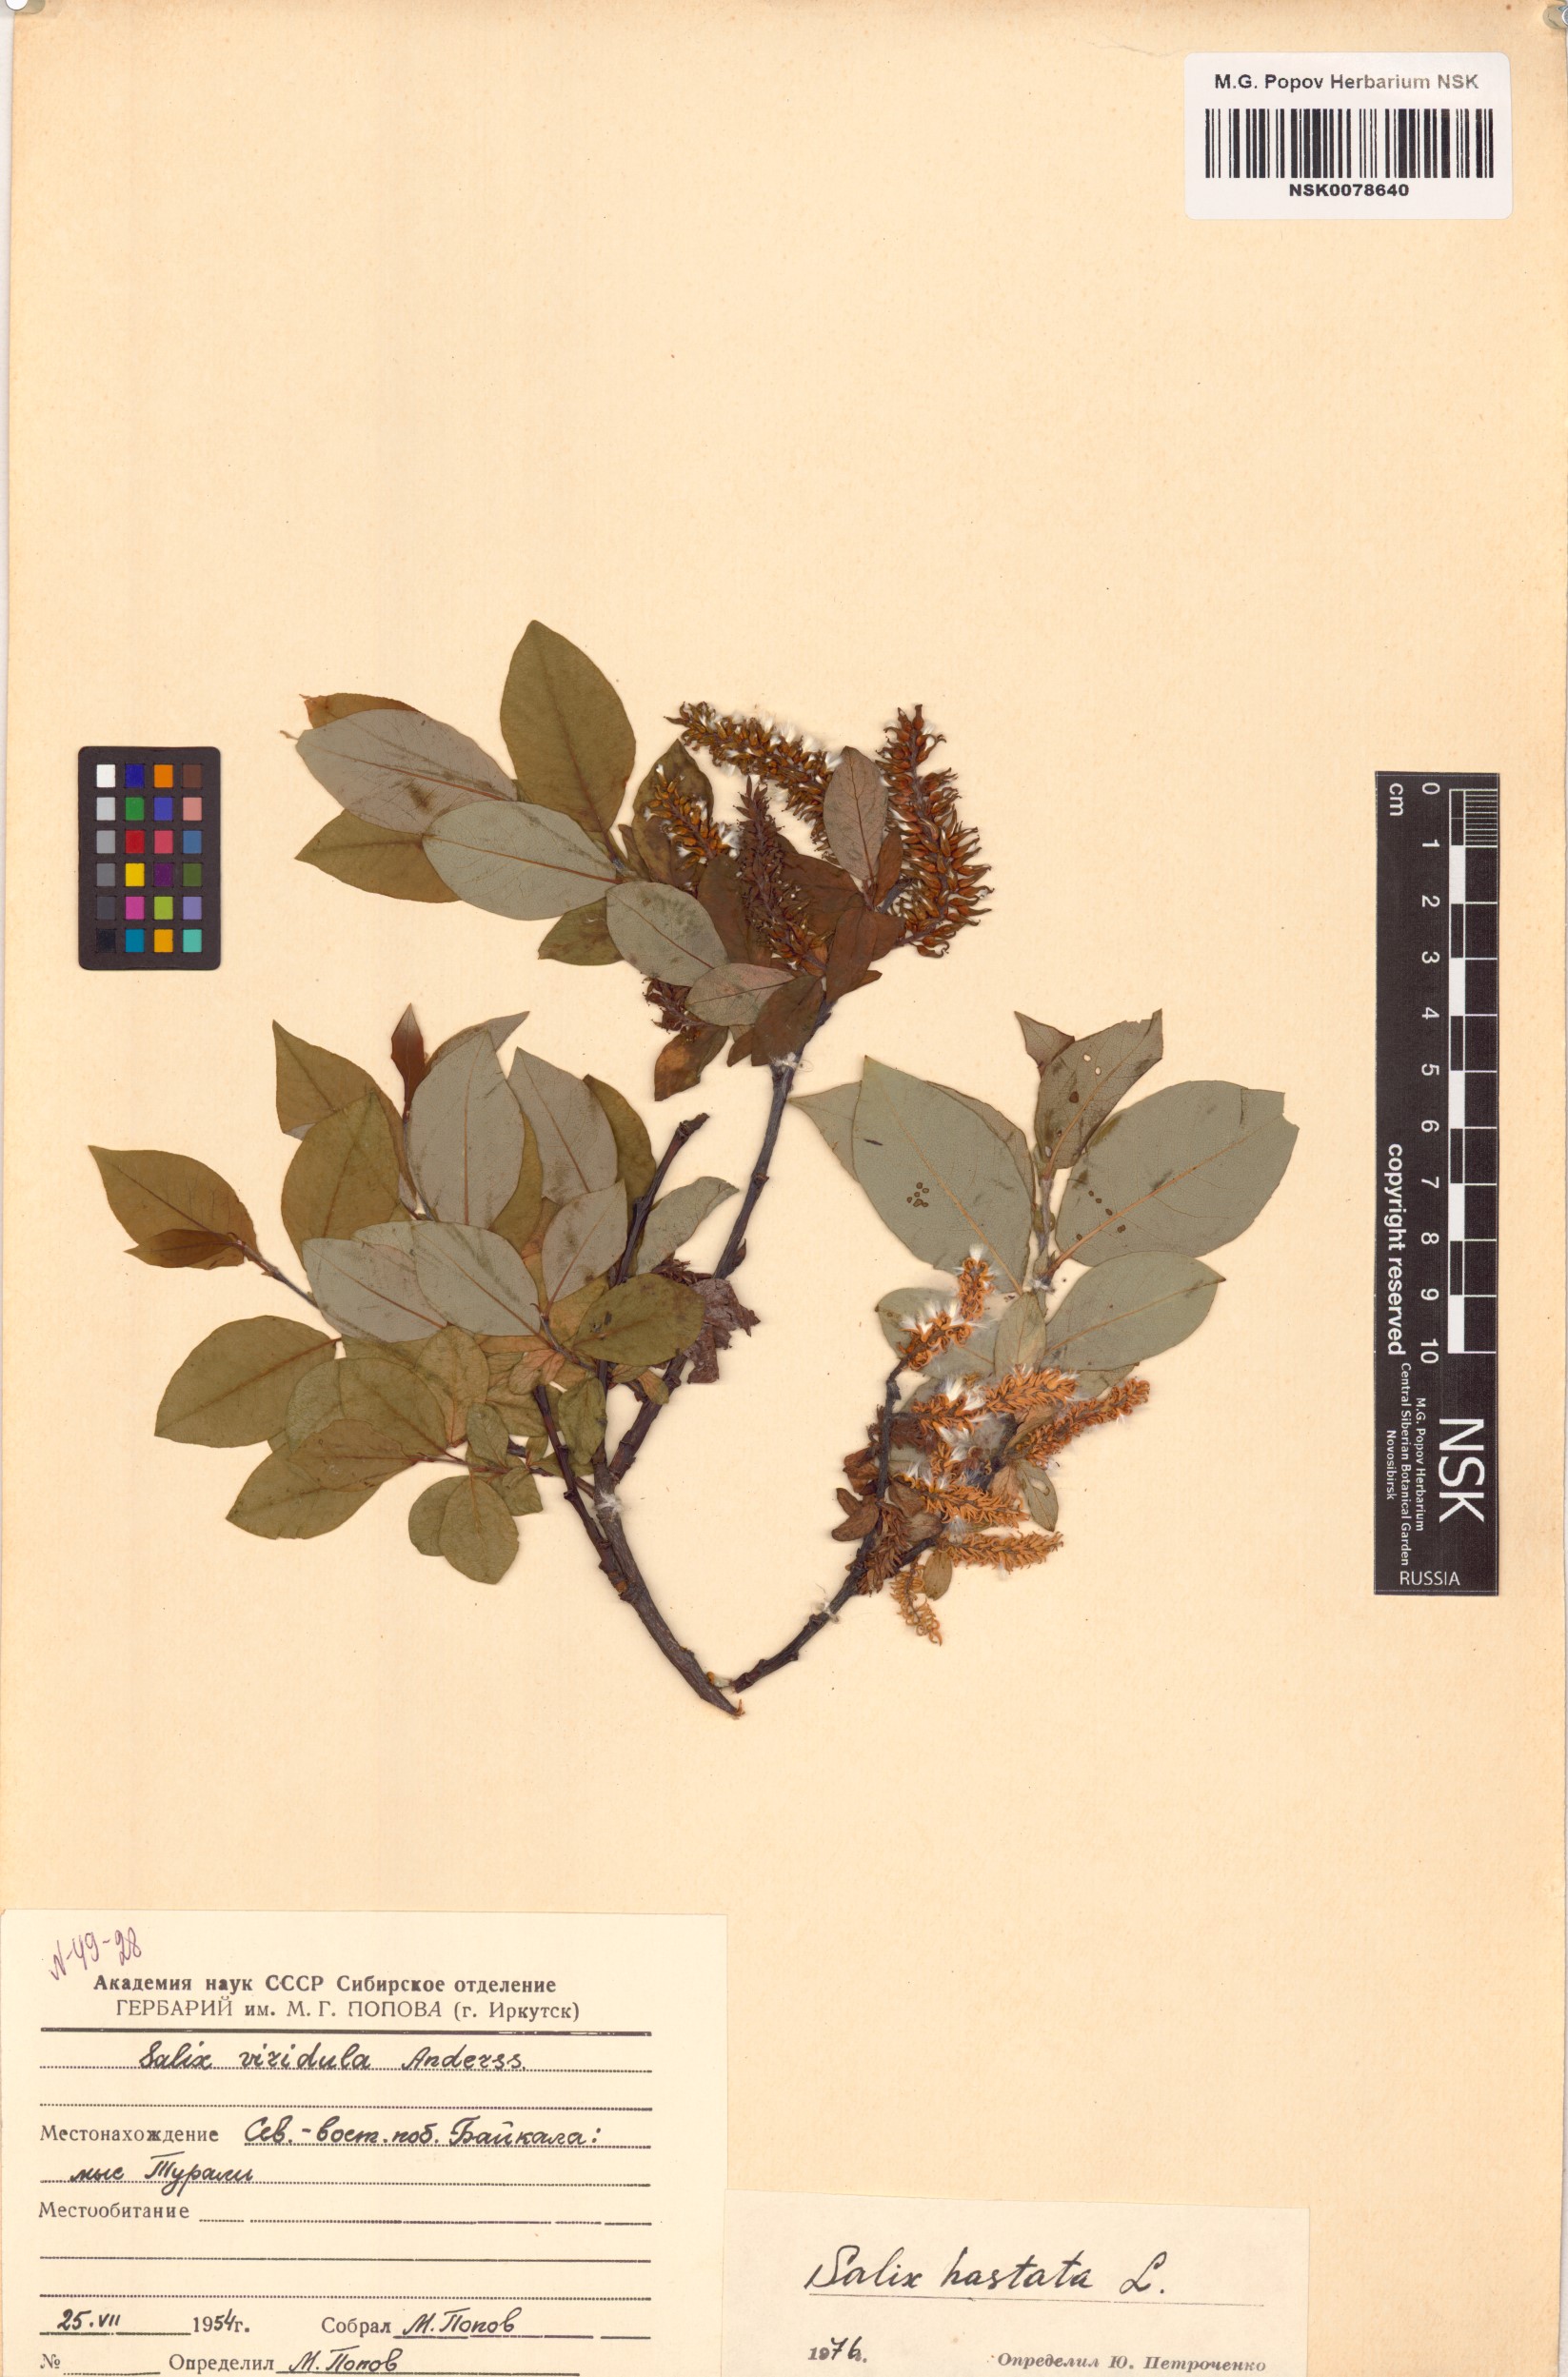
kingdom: Plantae
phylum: Tracheophyta
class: Magnoliopsida
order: Malpighiales
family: Salicaceae
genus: Salix
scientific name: Salix hastata
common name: Halberd willow
